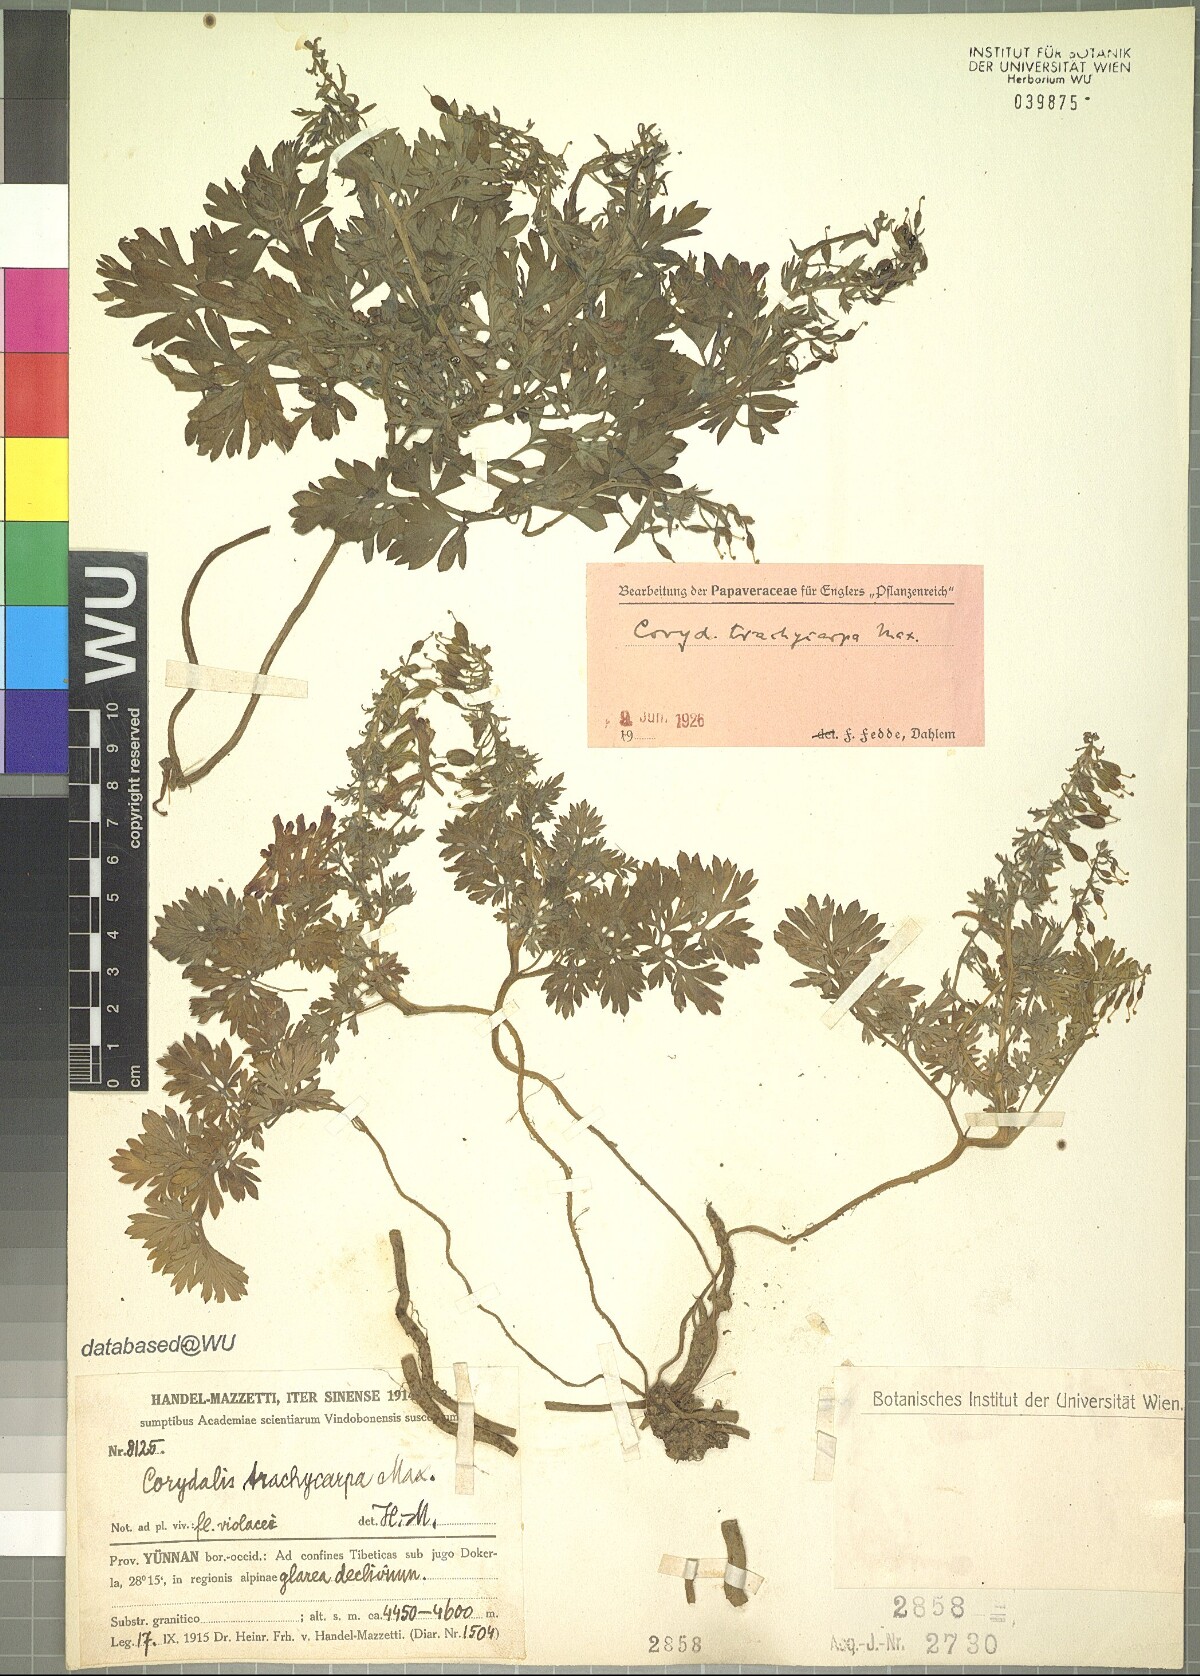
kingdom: Plantae
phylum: Tracheophyta
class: Magnoliopsida
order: Ranunculales
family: Papaveraceae
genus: Corydalis
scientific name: Corydalis trachycarpa
